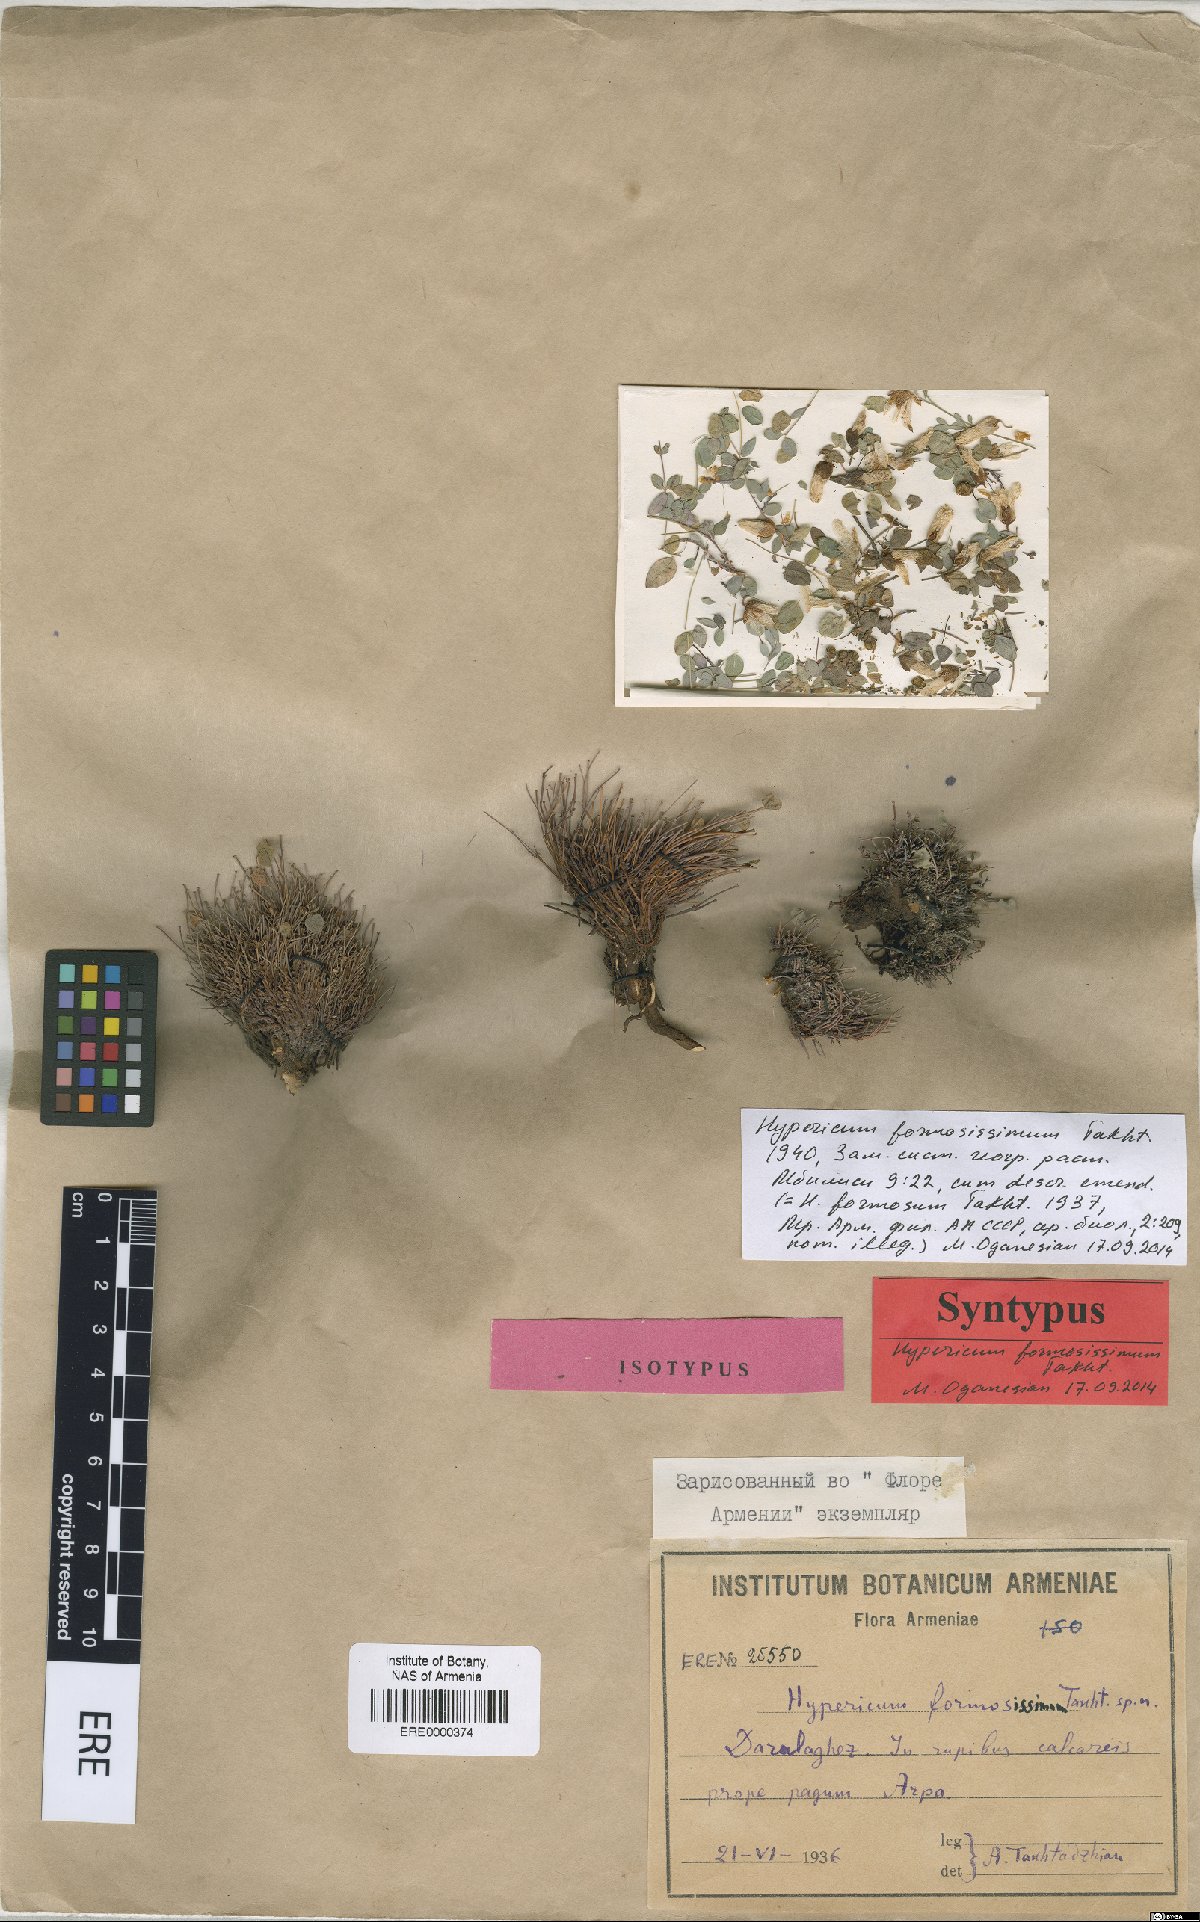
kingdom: Plantae
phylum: Tracheophyta
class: Magnoliopsida
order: Malpighiales
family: Hypericaceae
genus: Hypericum
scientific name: Hypericum formosissimum
